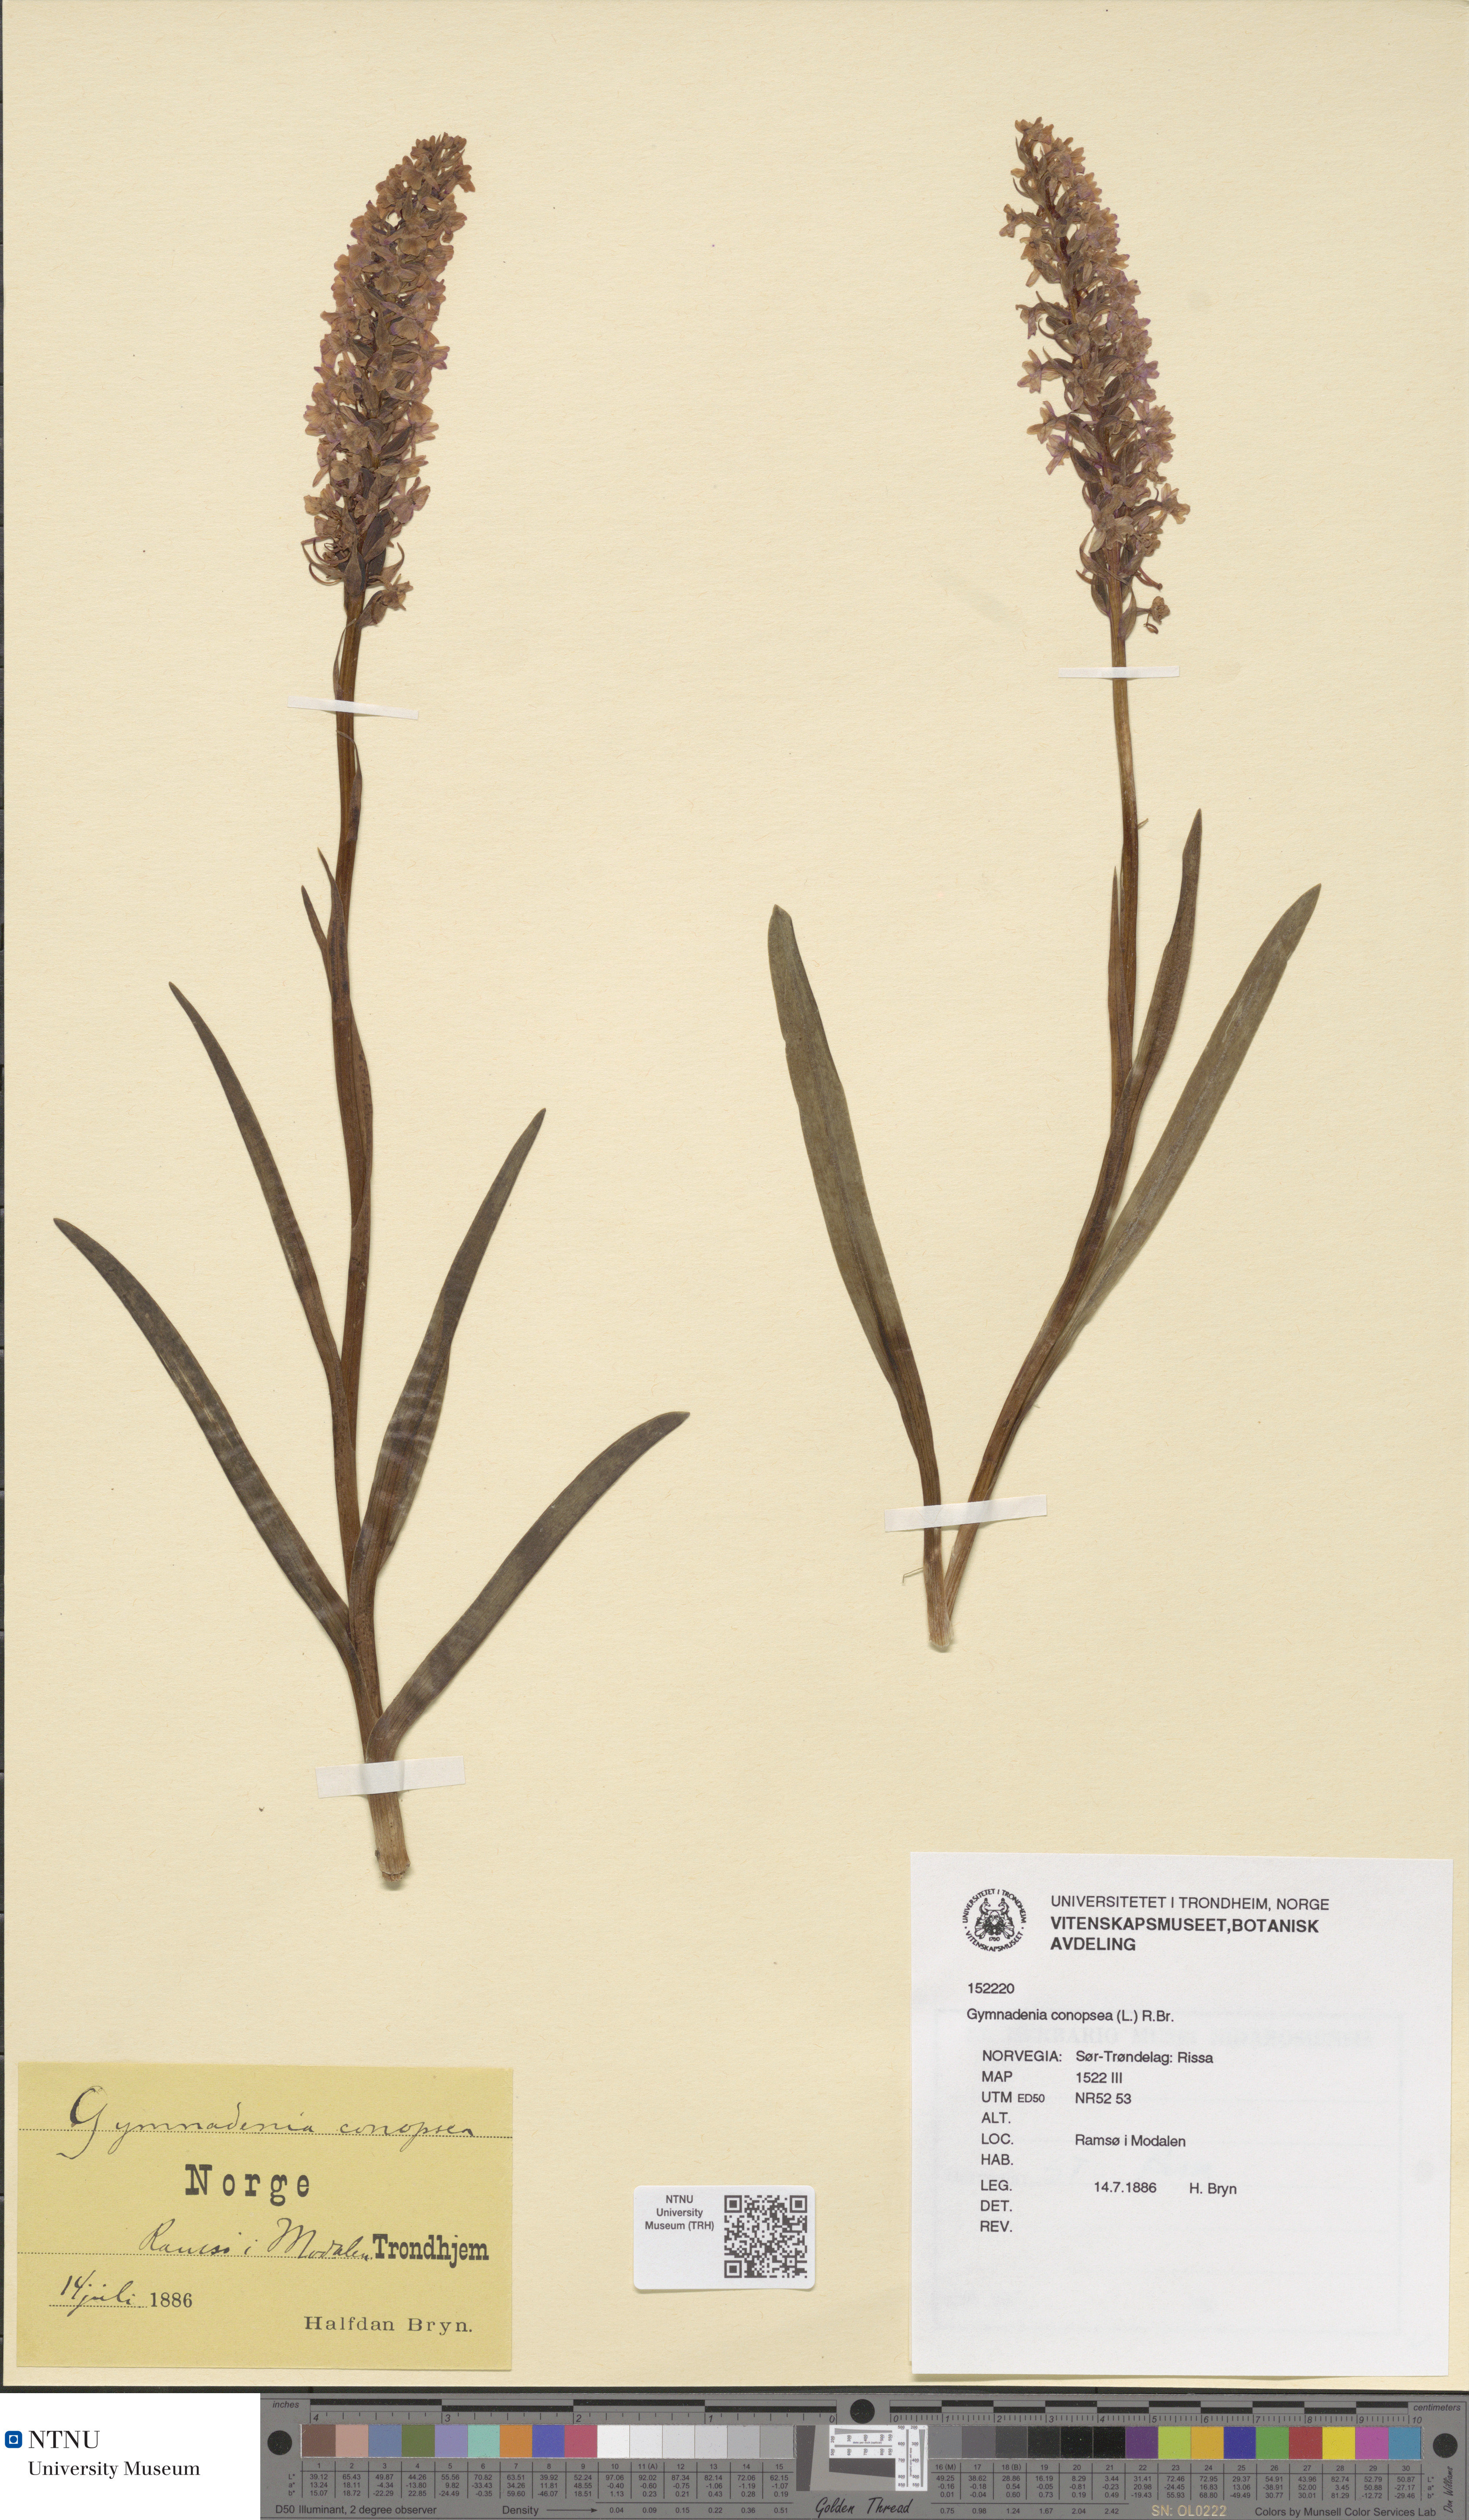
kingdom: Plantae
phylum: Tracheophyta
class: Liliopsida
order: Asparagales
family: Orchidaceae
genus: Gymnadenia
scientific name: Gymnadenia densiflora
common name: Marsh fragrant-orchid
